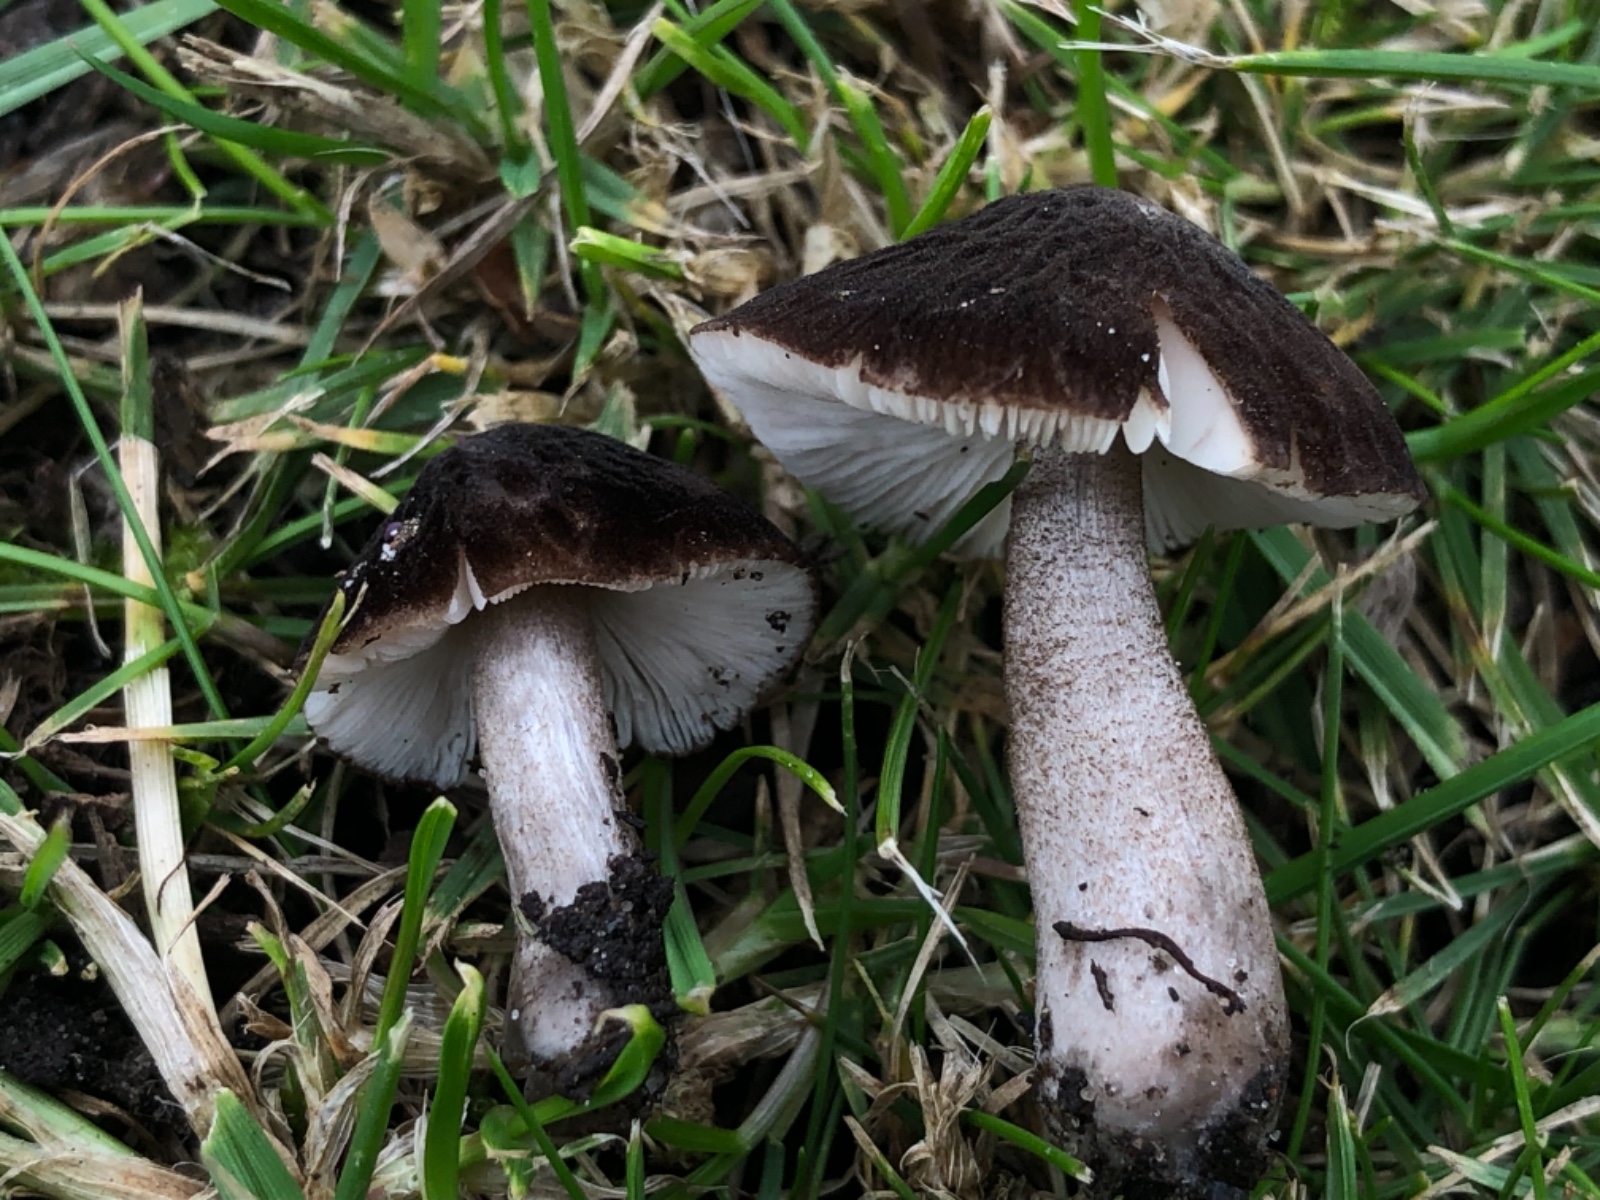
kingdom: Fungi
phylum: Basidiomycota
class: Agaricomycetes
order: Agaricales
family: Pluteaceae
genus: Pluteus
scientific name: Pluteus inflatus
